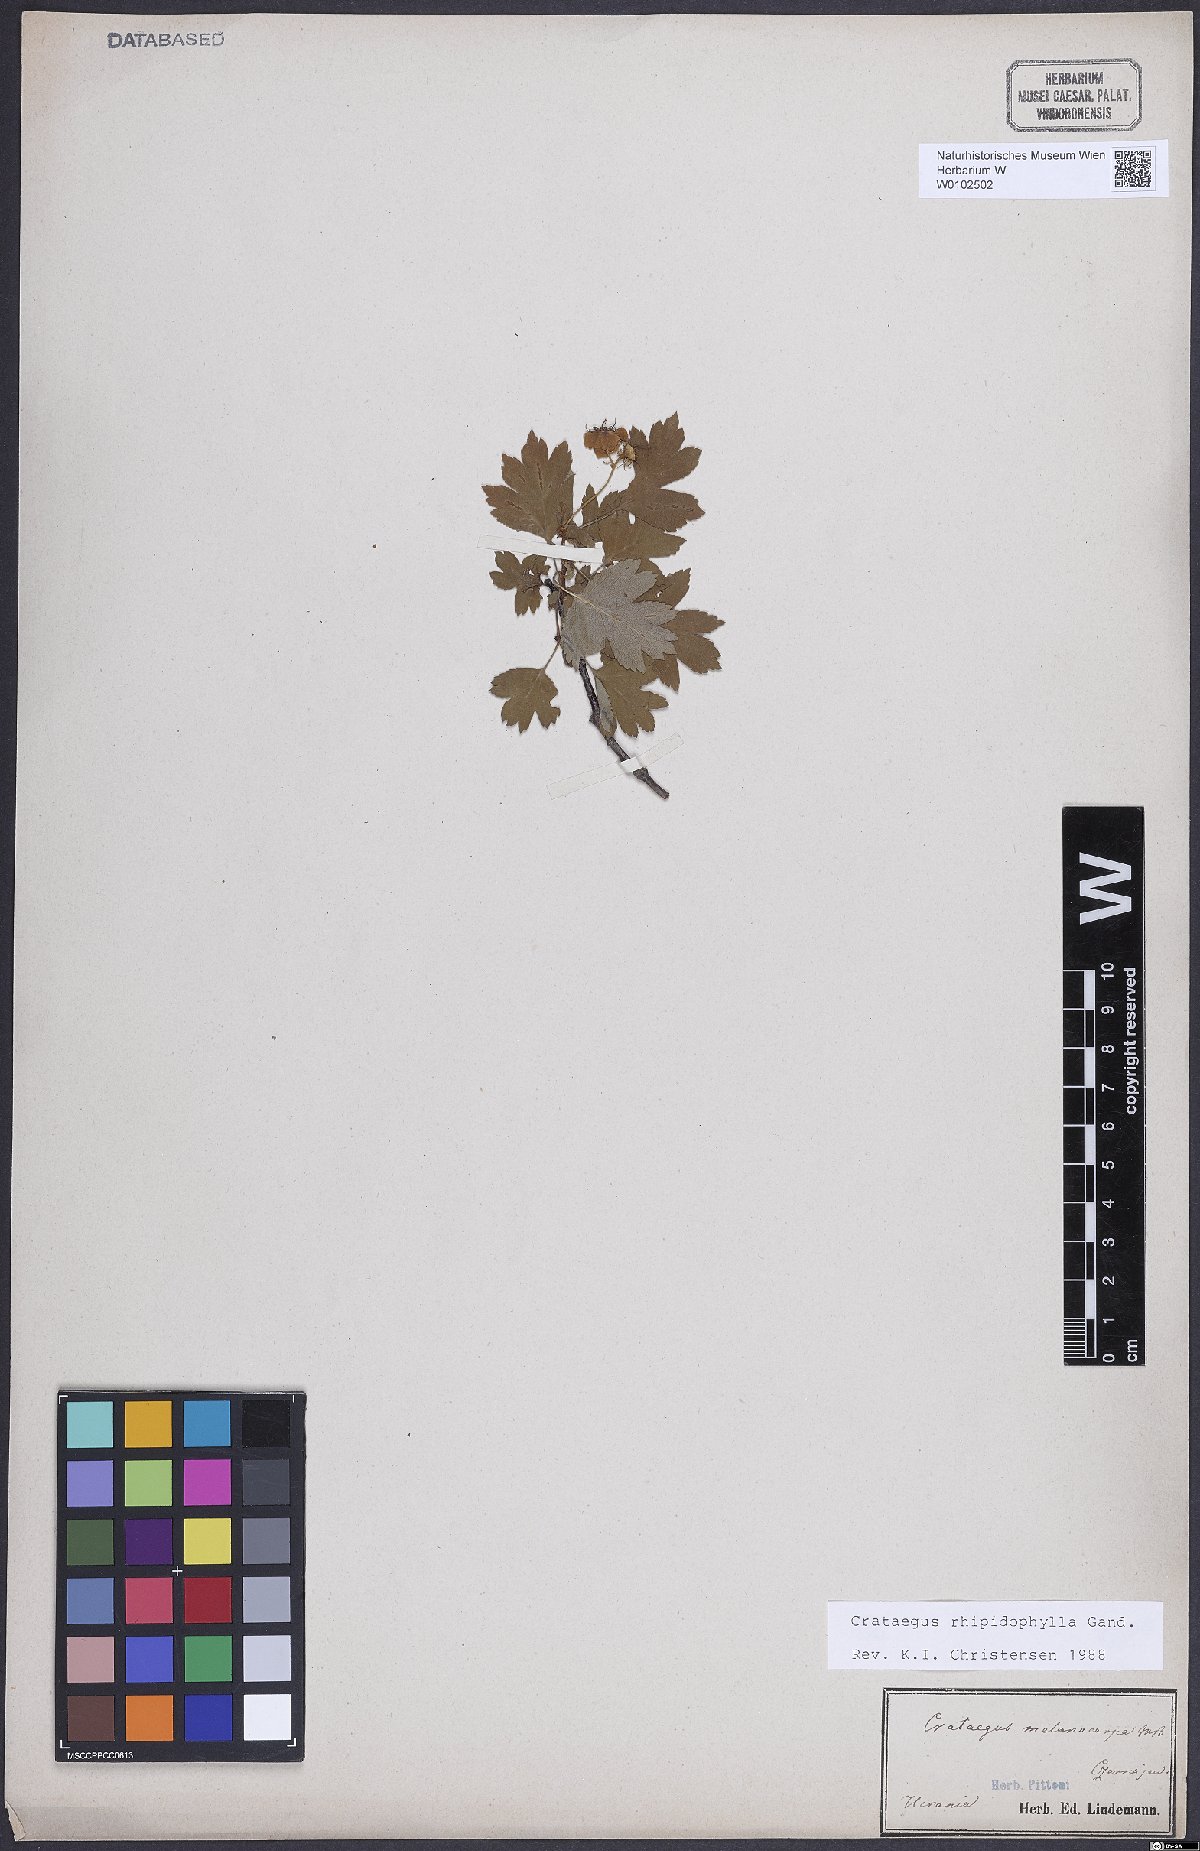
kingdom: Plantae
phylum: Tracheophyta
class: Magnoliopsida
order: Rosales
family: Rosaceae
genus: Crataegus
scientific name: Crataegus rhipidophylla
